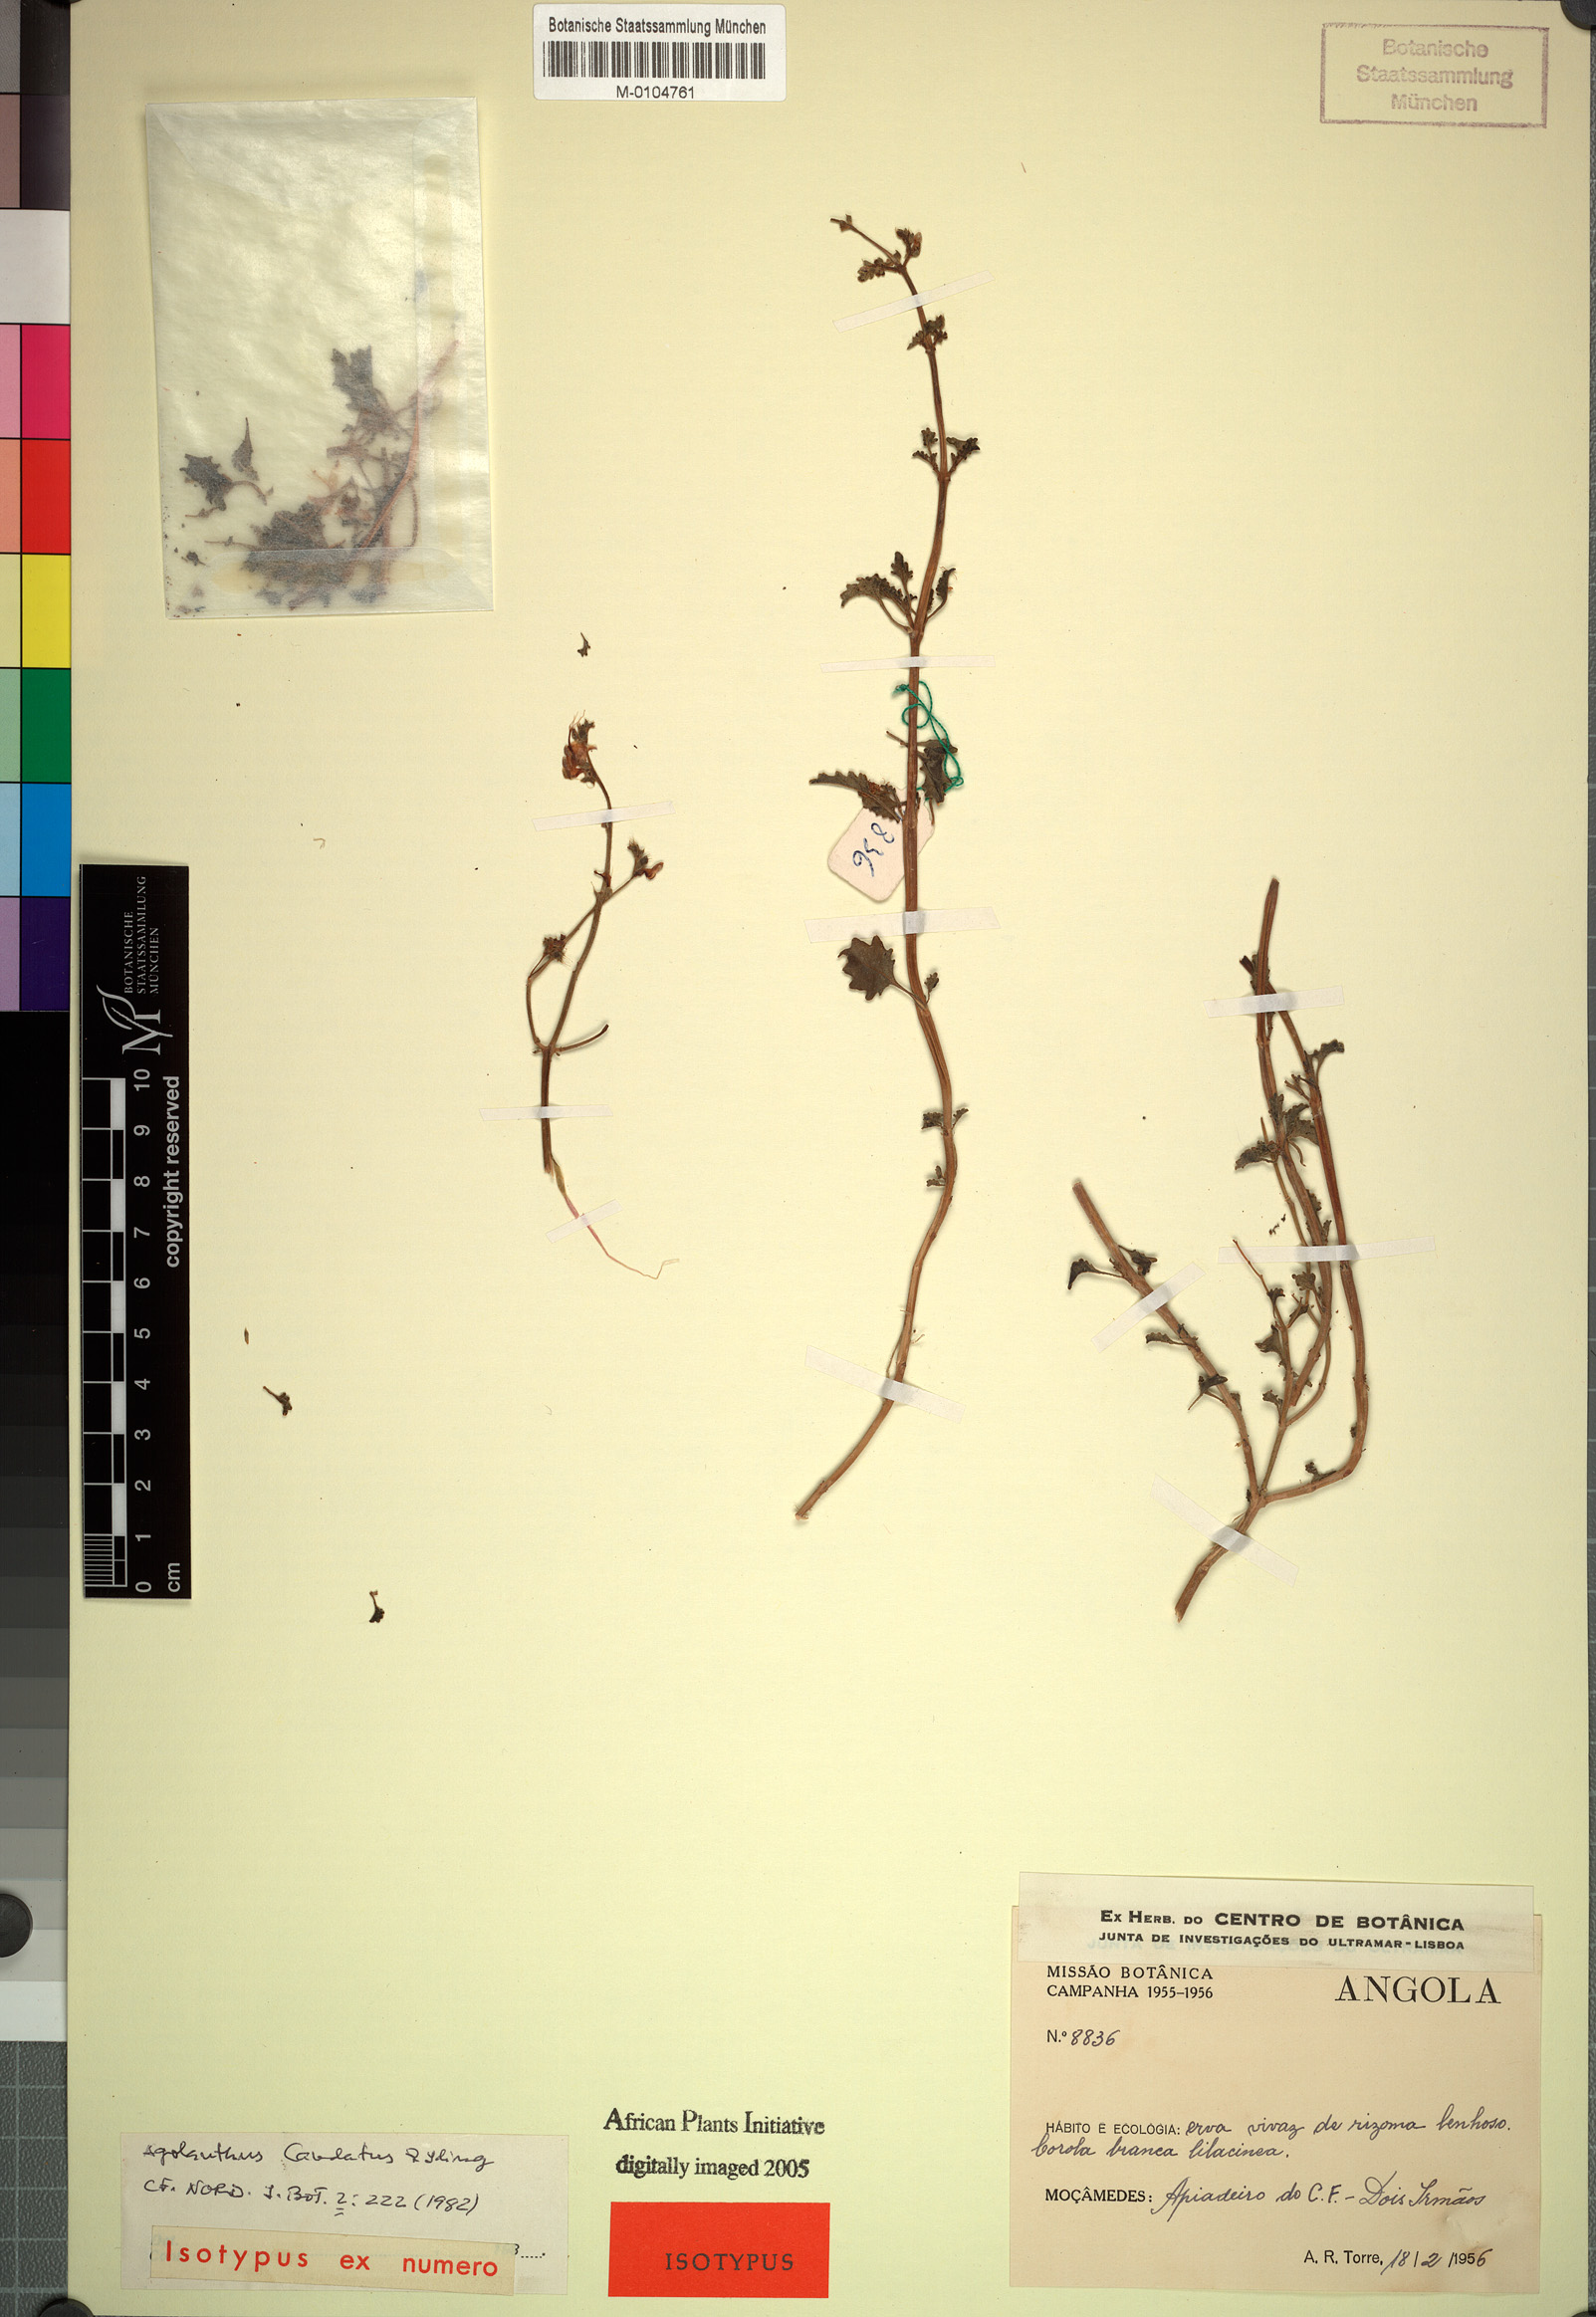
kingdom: Plantae
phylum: Tracheophyta
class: Magnoliopsida
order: Lamiales
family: Lamiaceae
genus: Aeollanthus
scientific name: Aeollanthus caudatus
